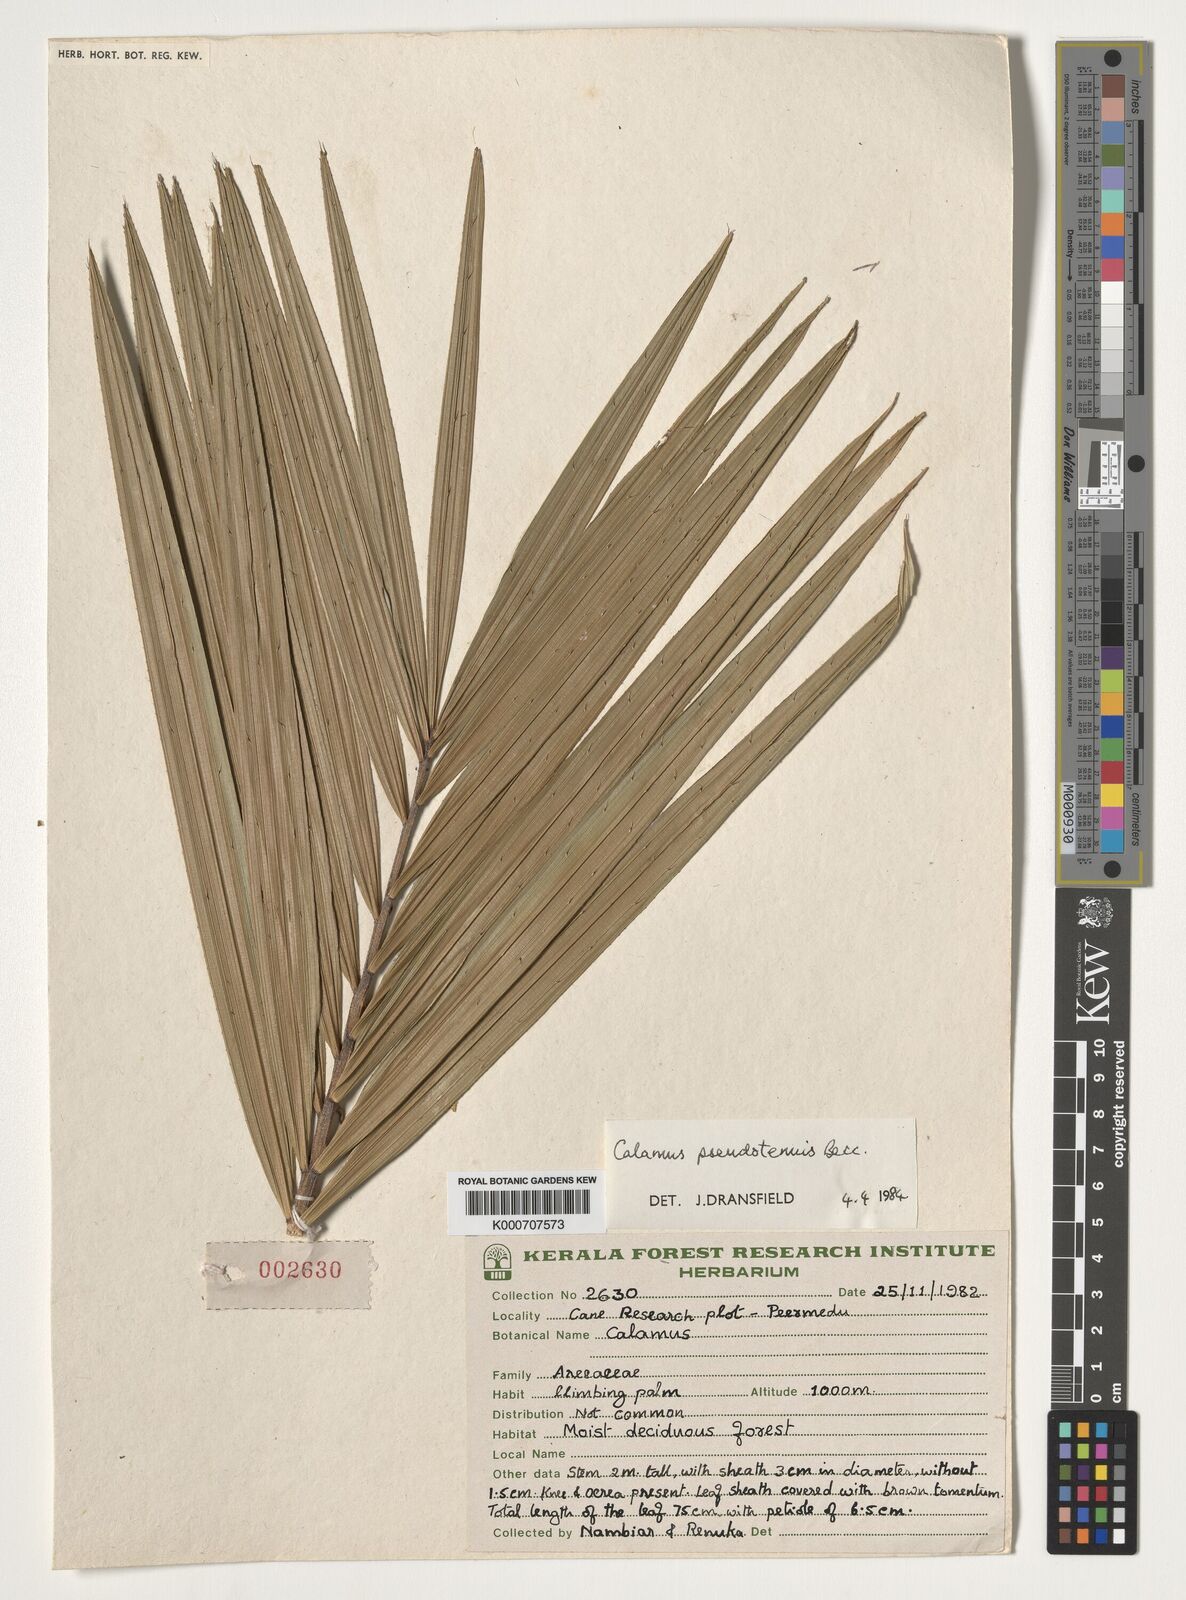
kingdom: Plantae
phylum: Tracheophyta
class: Liliopsida
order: Arecales
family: Arecaceae
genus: Calamus
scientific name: Calamus pseudotenuis
